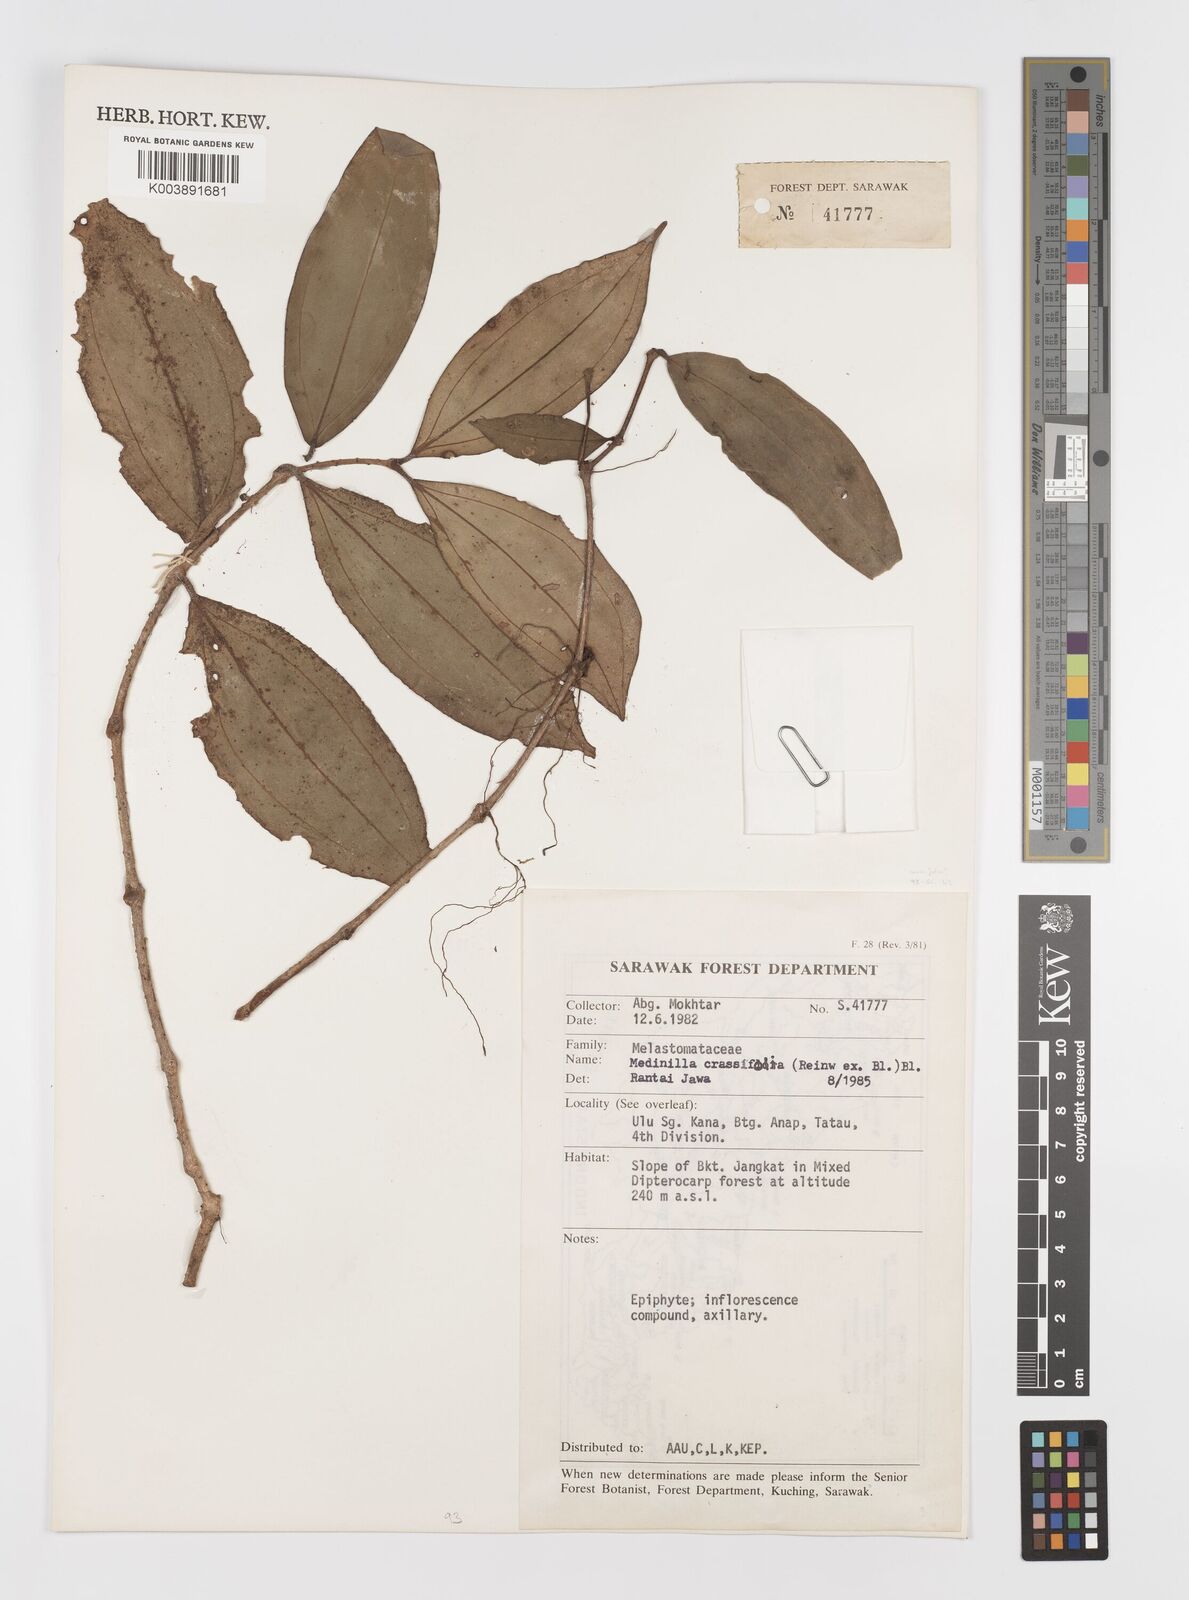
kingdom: Plantae
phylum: Tracheophyta
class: Magnoliopsida
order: Myrtales
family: Melastomataceae
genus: Medinilla
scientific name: Medinilla crassifolia
